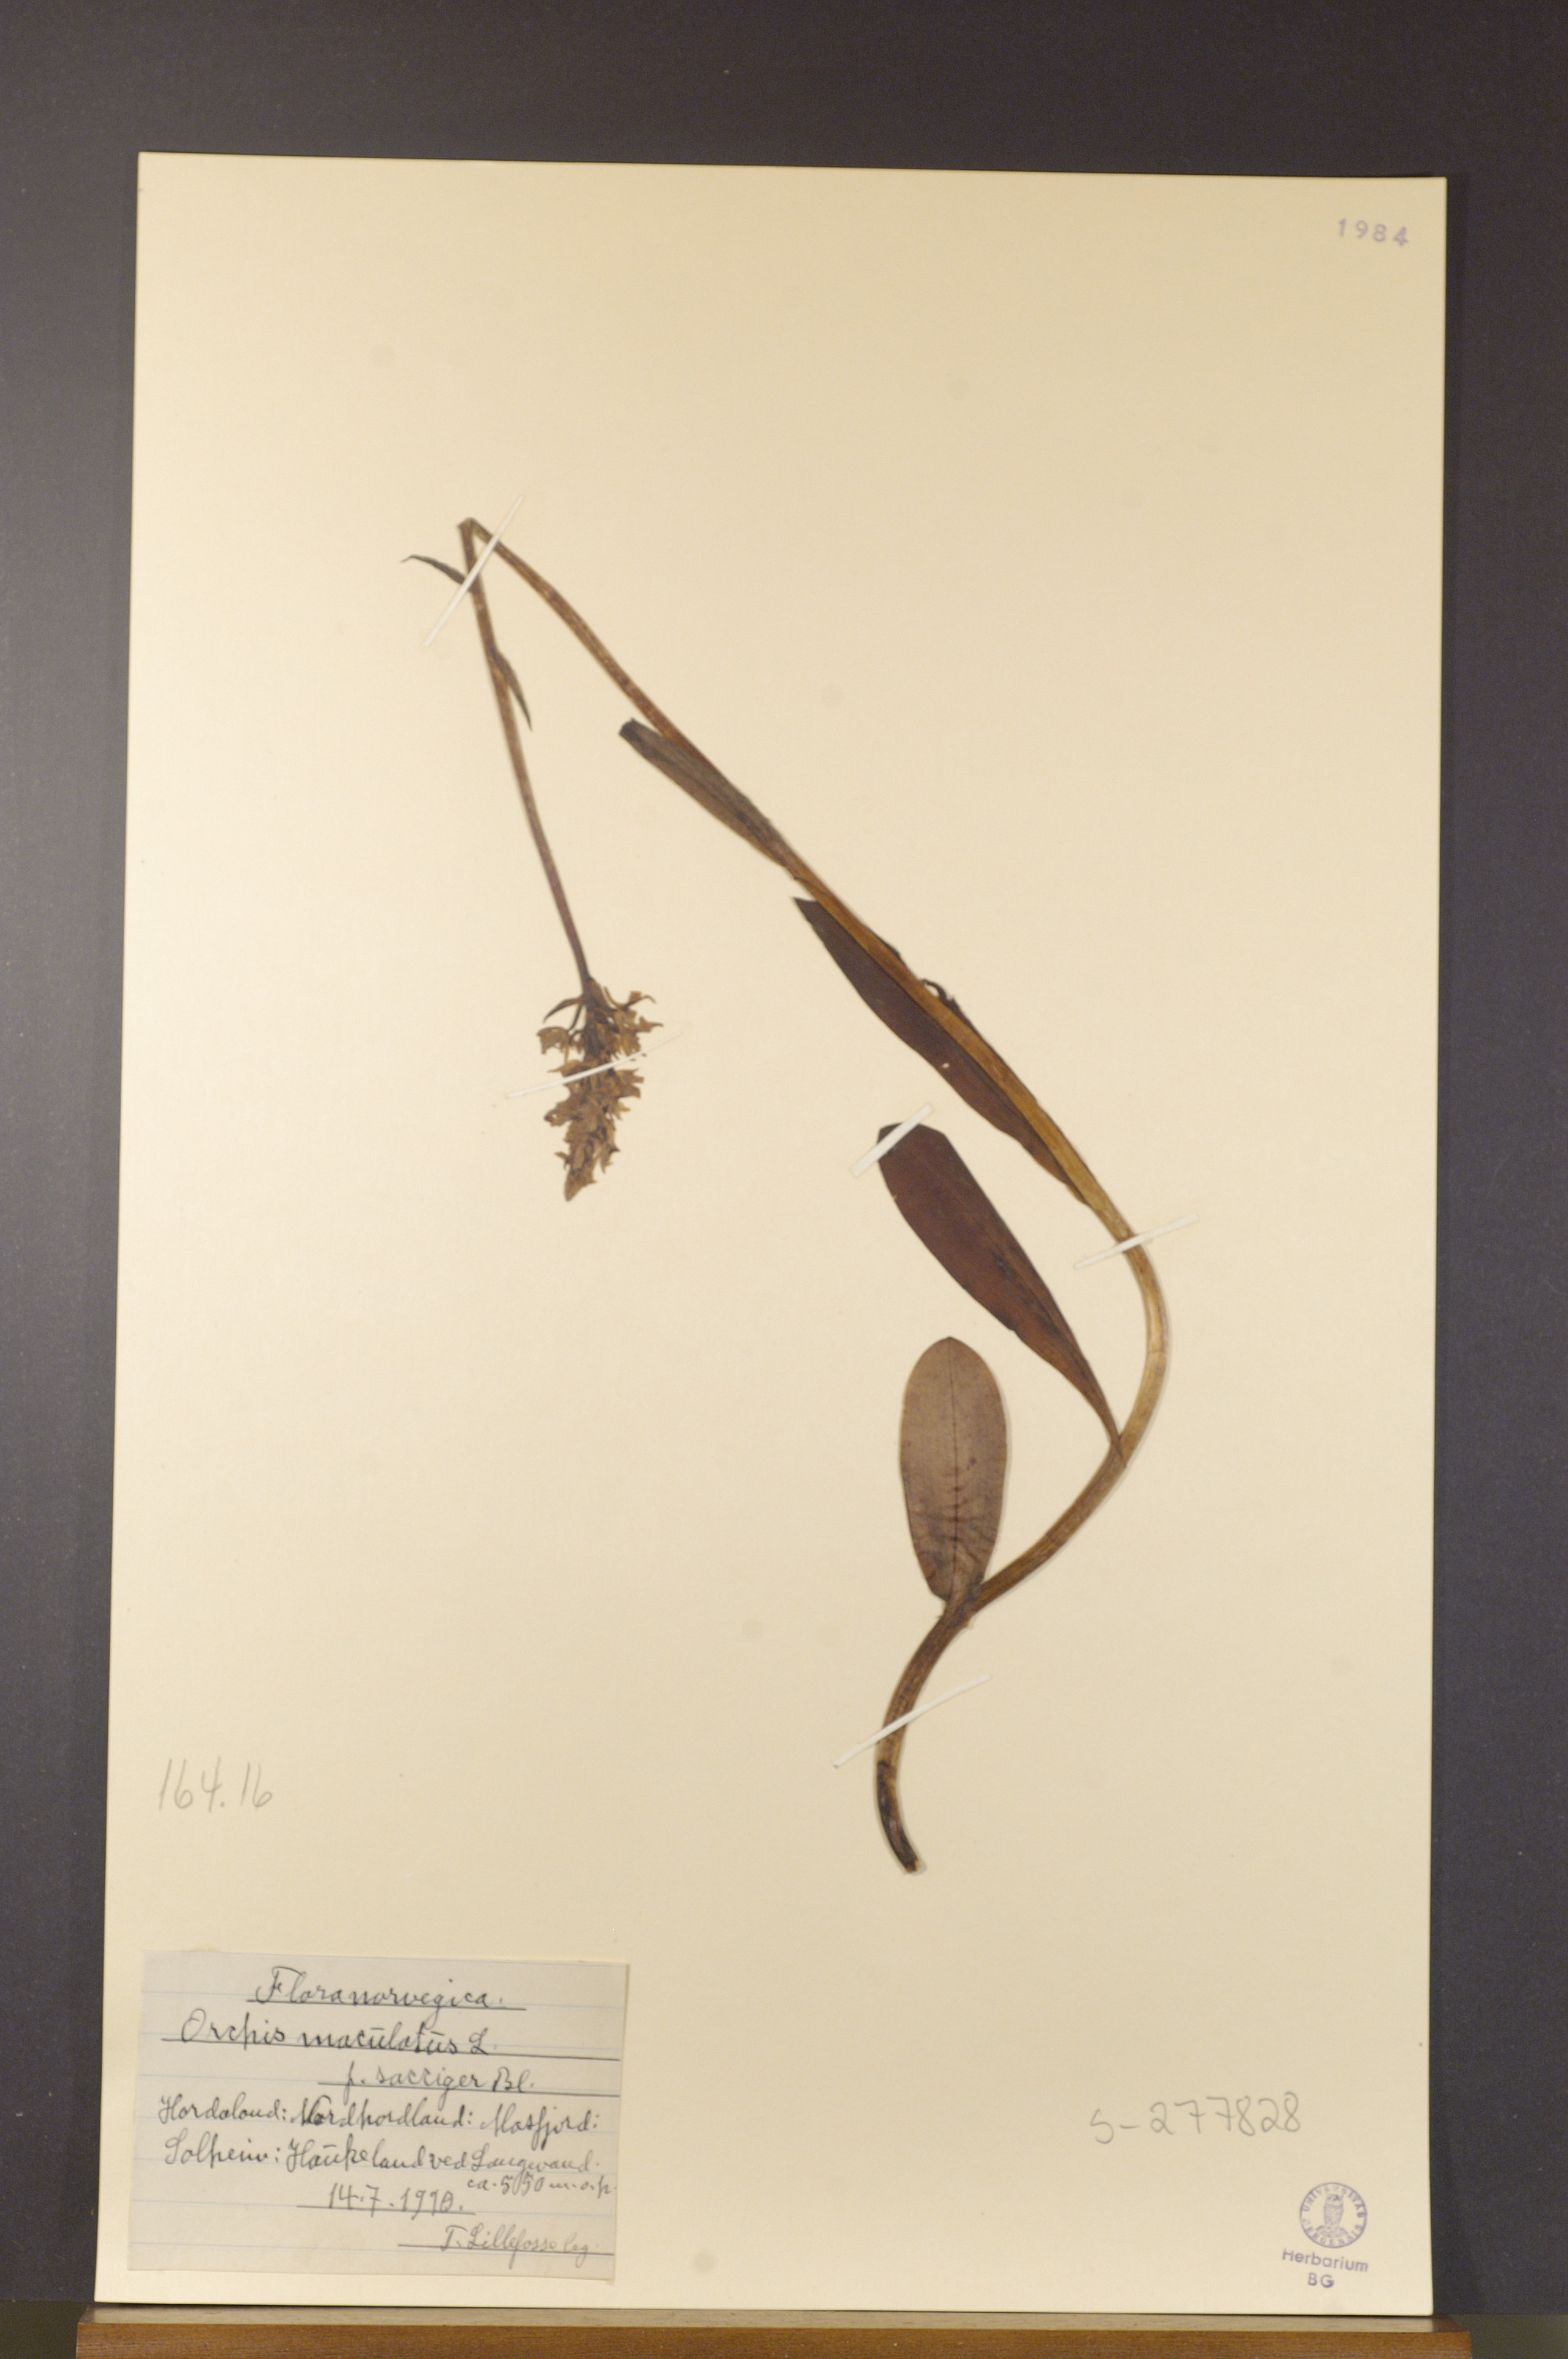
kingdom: Plantae
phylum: Tracheophyta
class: Liliopsida
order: Asparagales
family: Orchidaceae
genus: Dactylorhiza
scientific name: Dactylorhiza maculata
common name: Heath spotted-orchid
